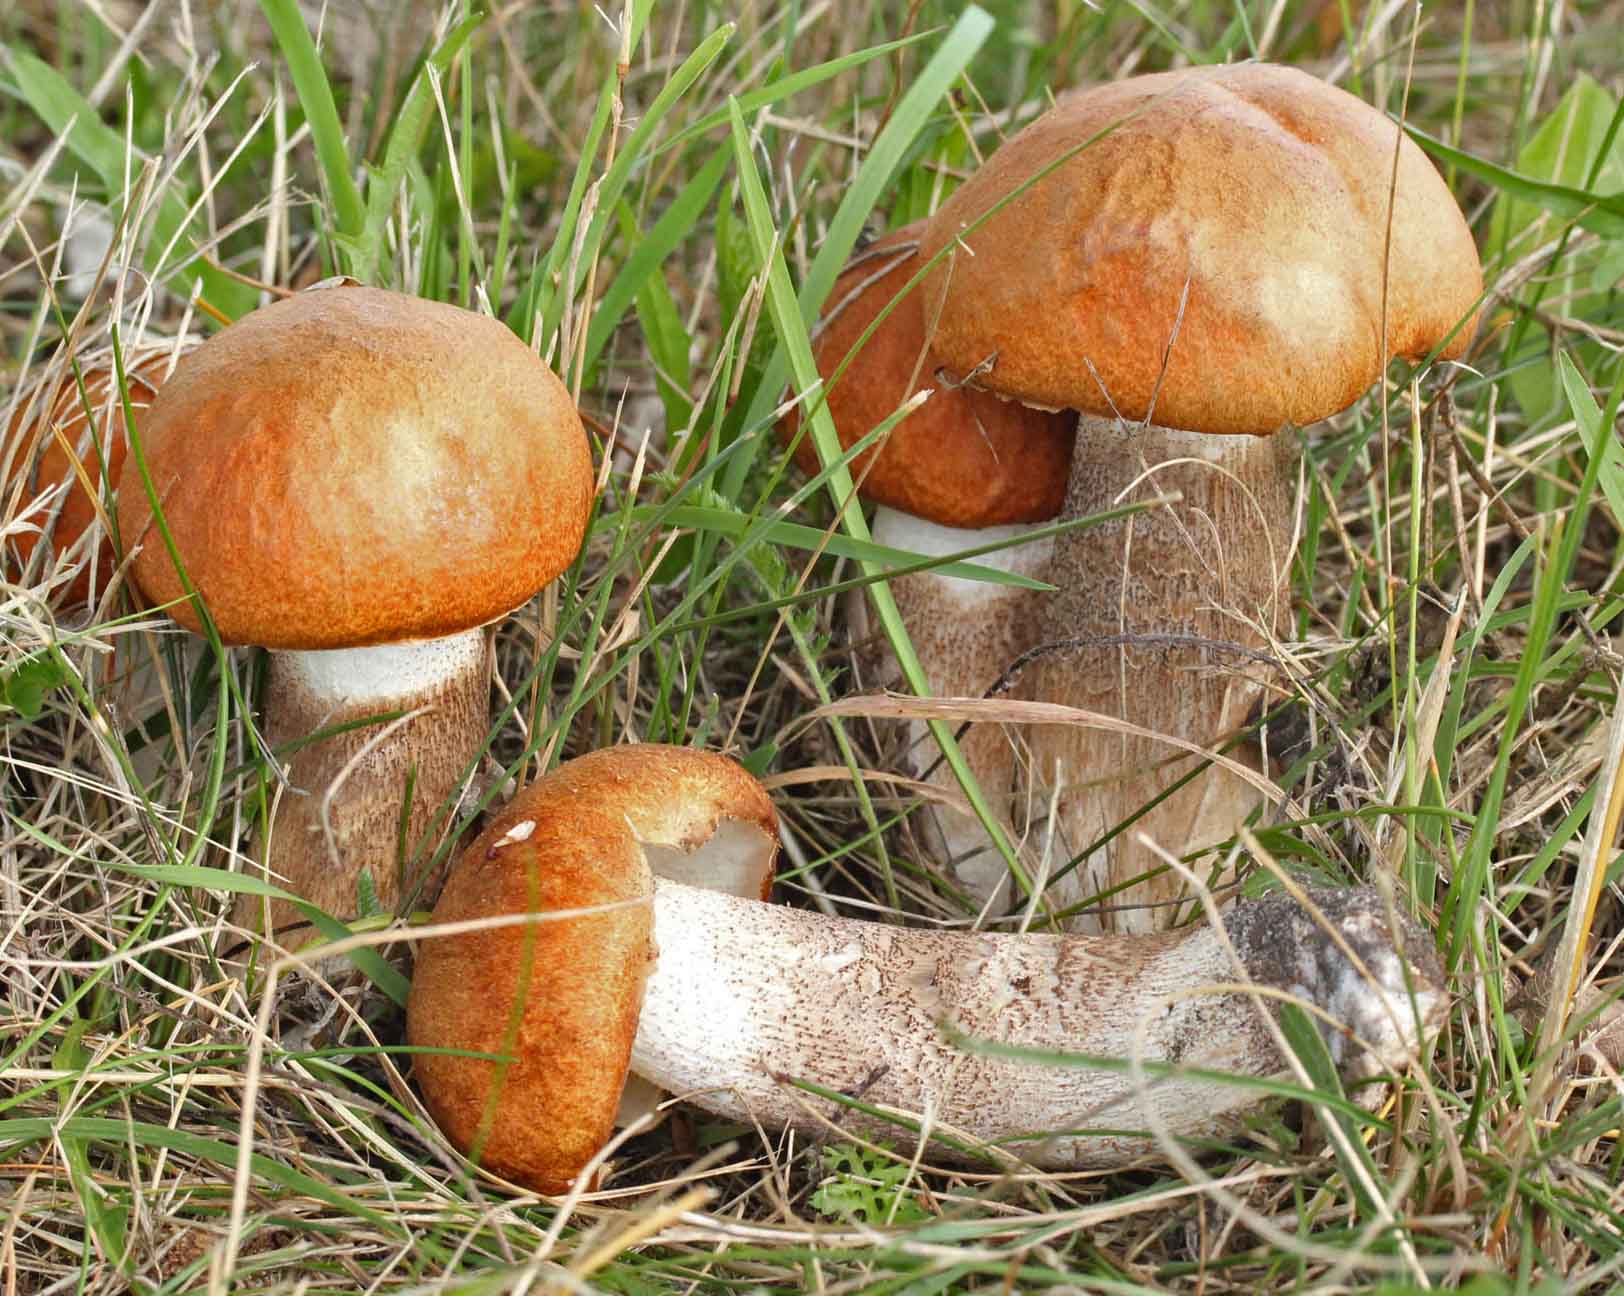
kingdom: Fungi
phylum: Basidiomycota
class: Agaricomycetes
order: Boletales
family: Boletaceae
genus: Leccinum
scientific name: Leccinum albostipitatum
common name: aspe-skælrørhat
